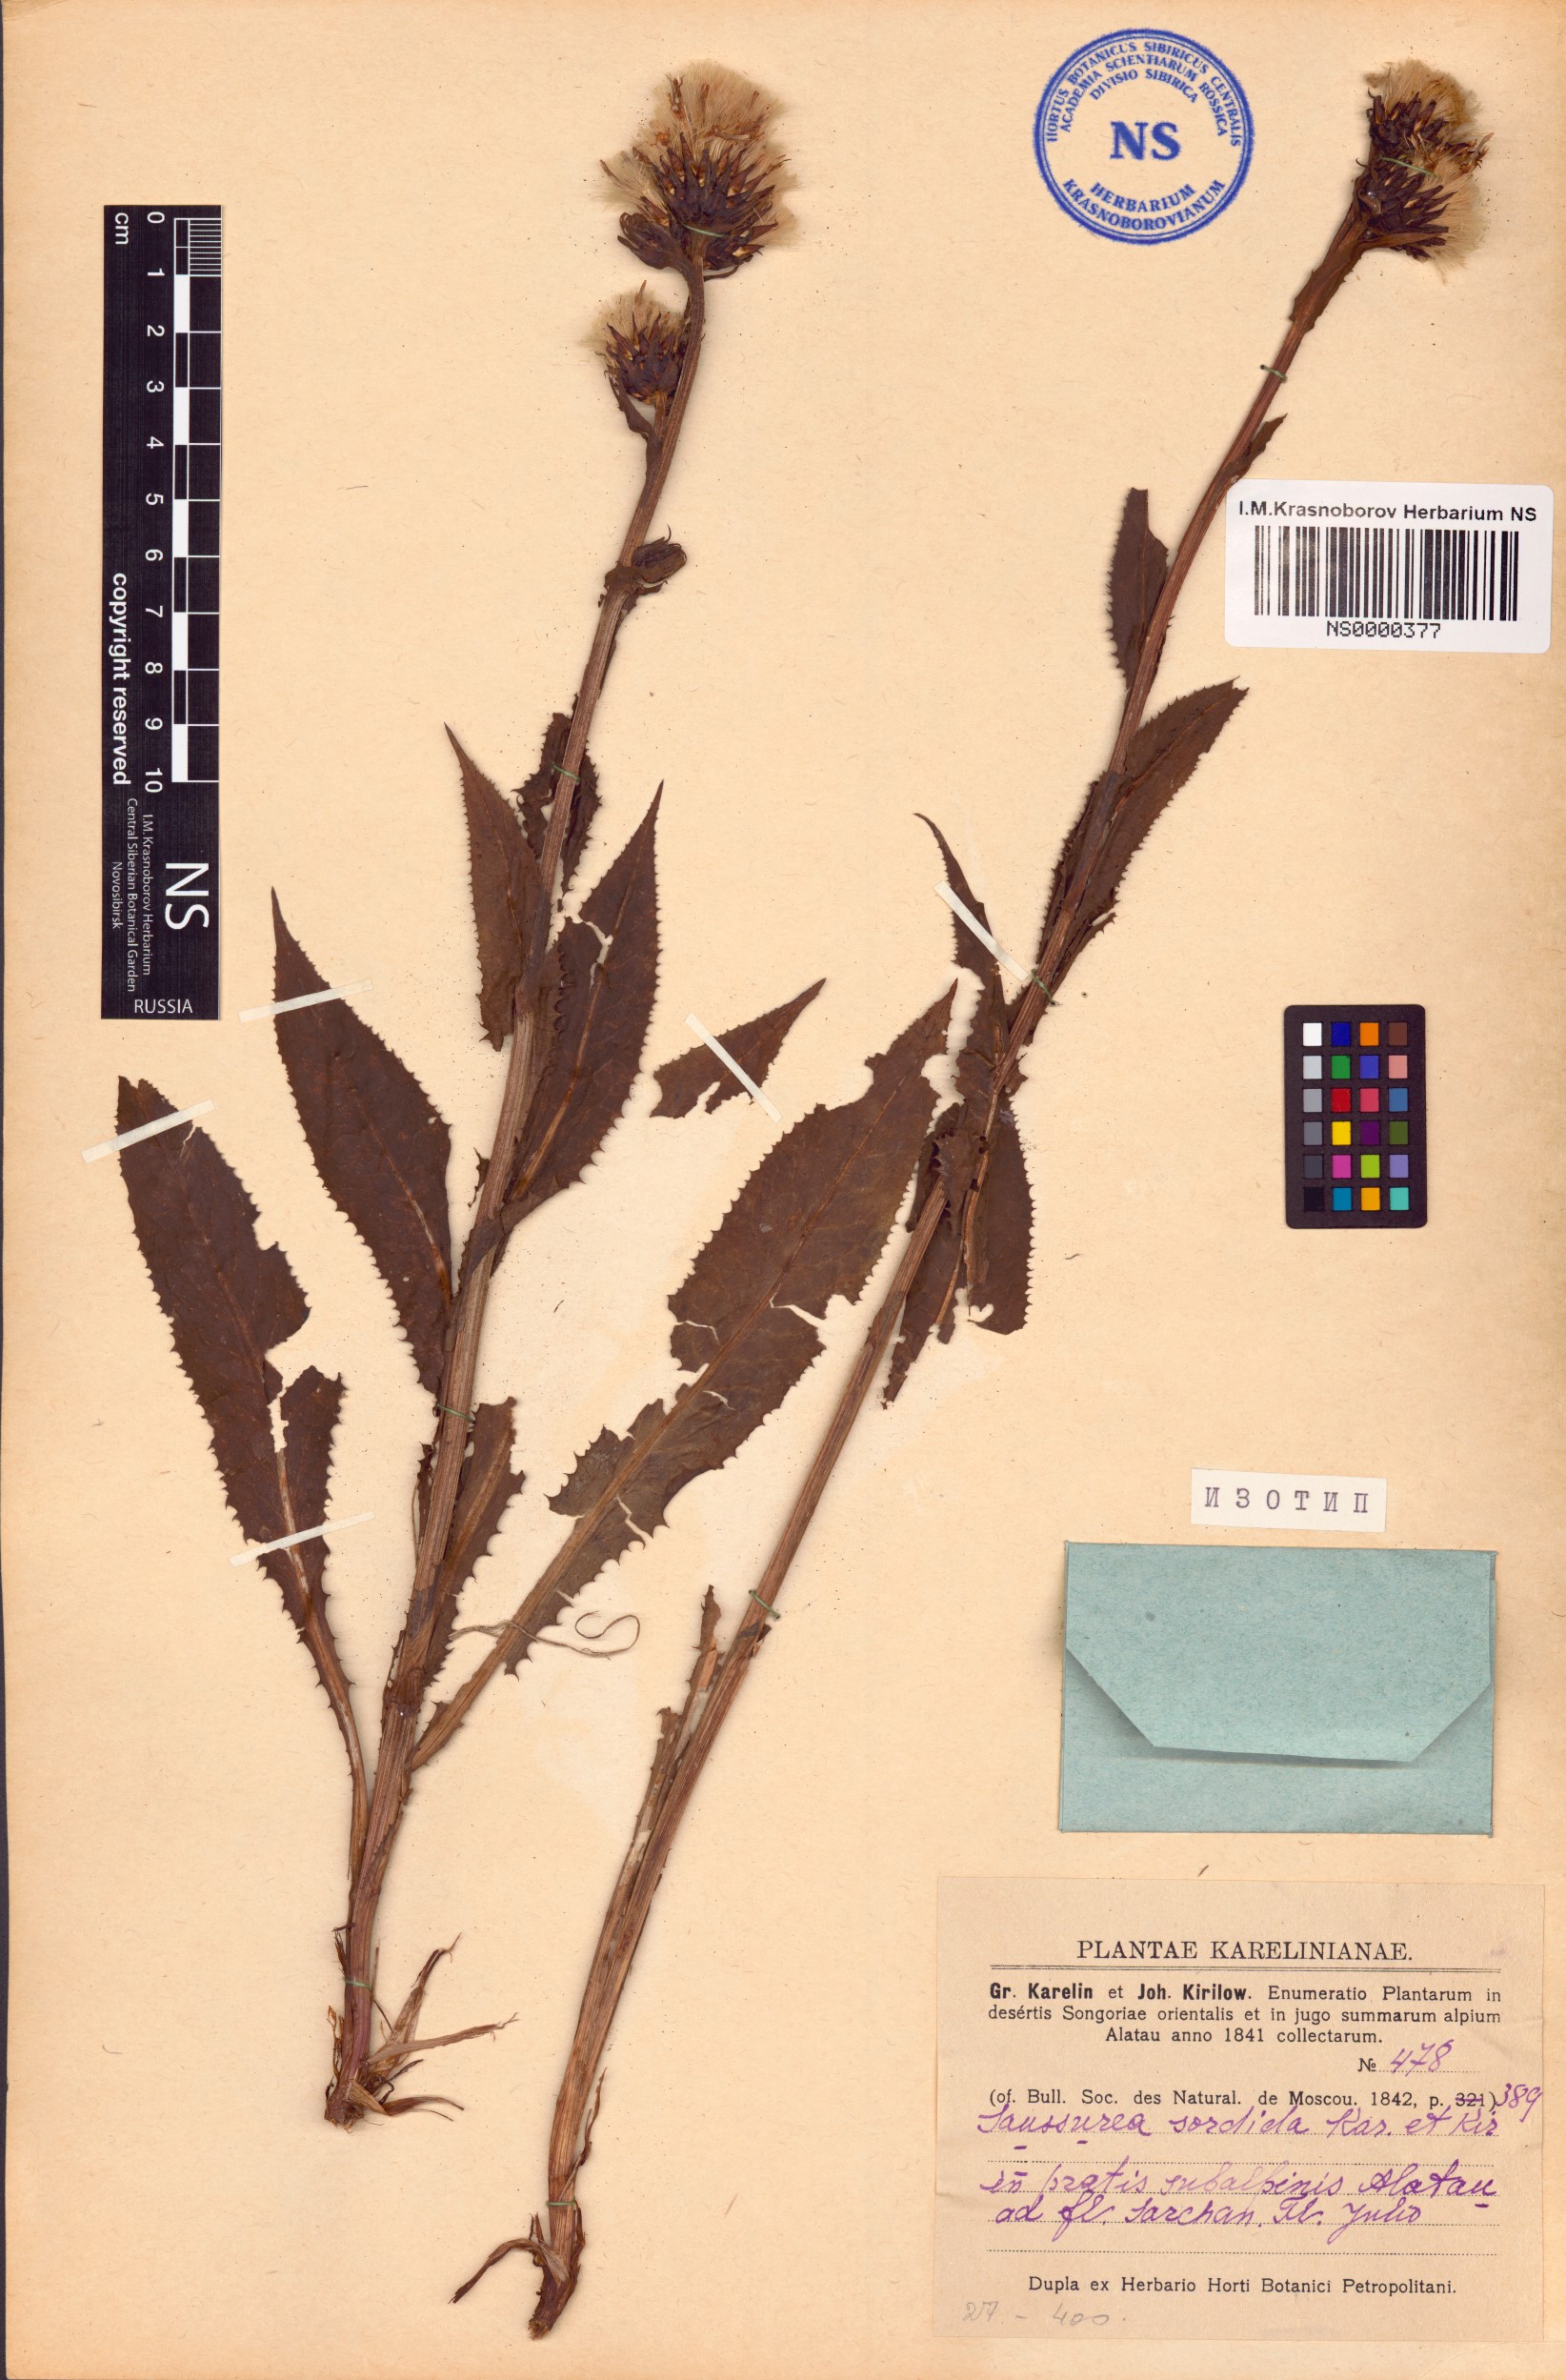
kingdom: Plantae
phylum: Tracheophyta
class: Magnoliopsida
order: Asterales
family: Asteraceae
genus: Saussurea
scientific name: Saussurea sordida
